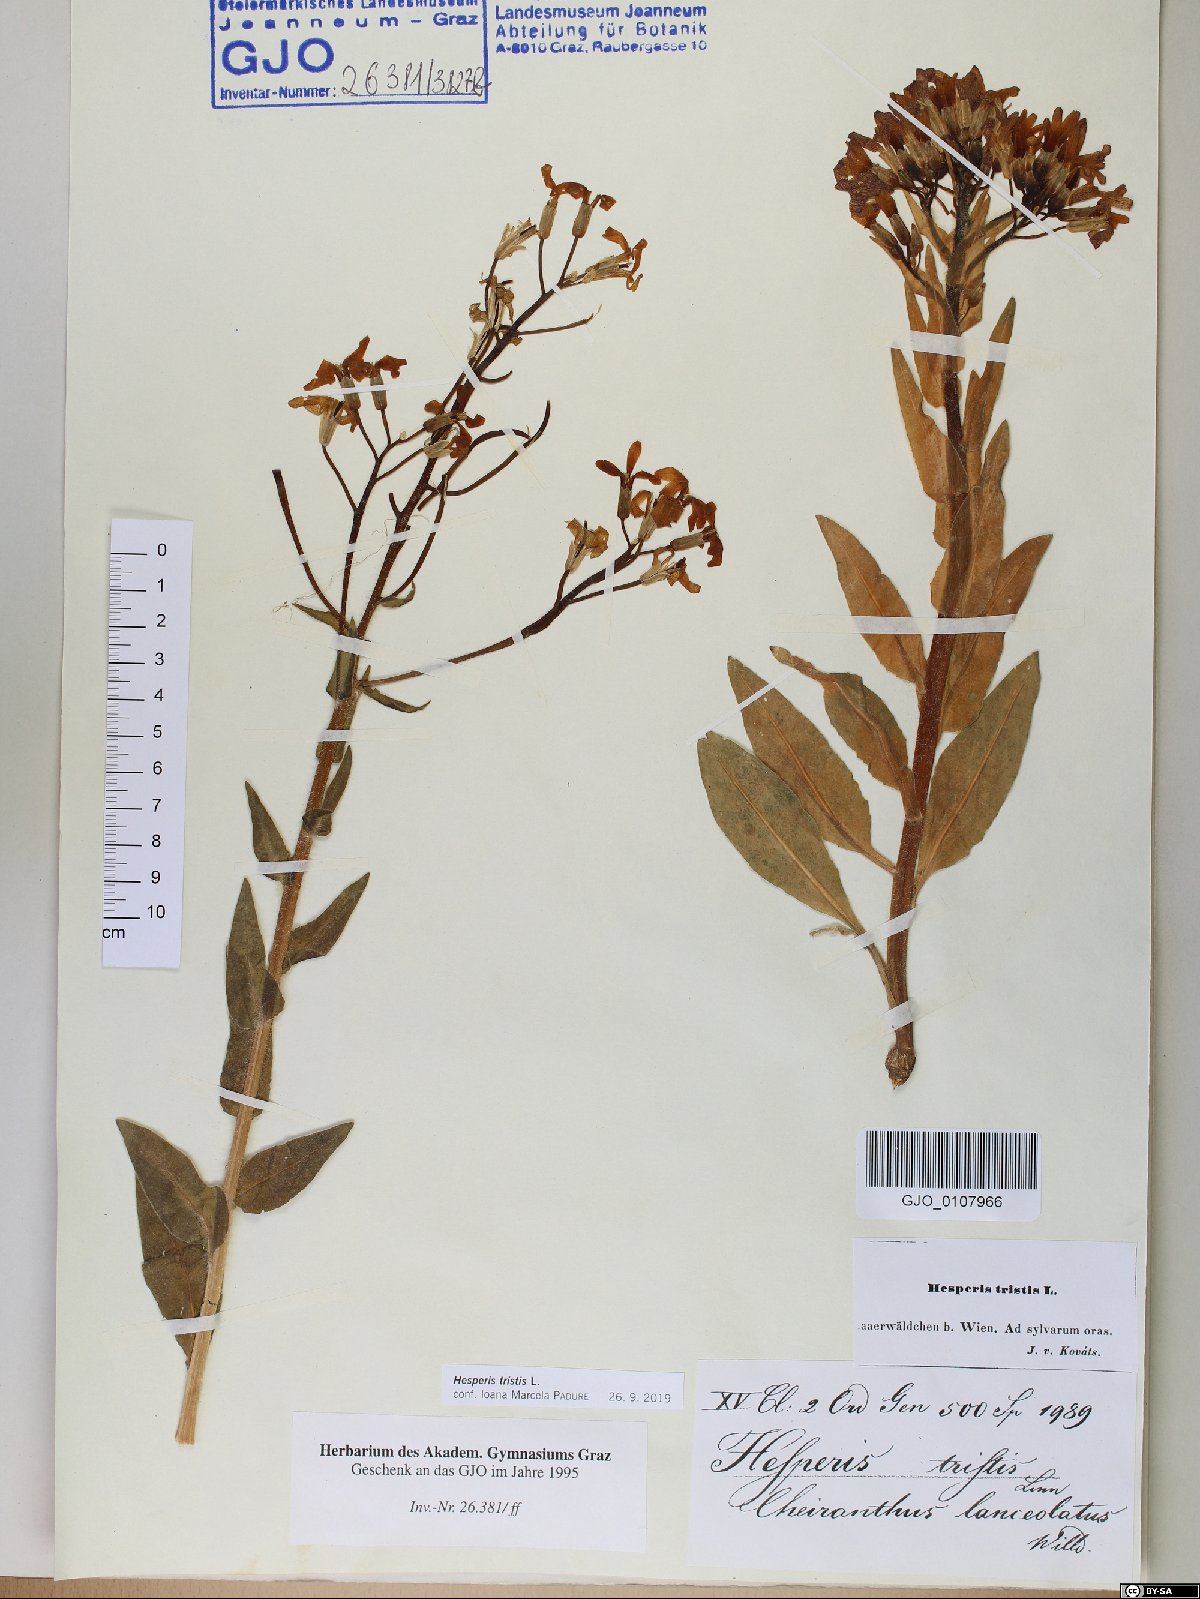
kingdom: Plantae
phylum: Tracheophyta
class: Magnoliopsida
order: Brassicales
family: Brassicaceae
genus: Hesperis
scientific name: Hesperis tristis
